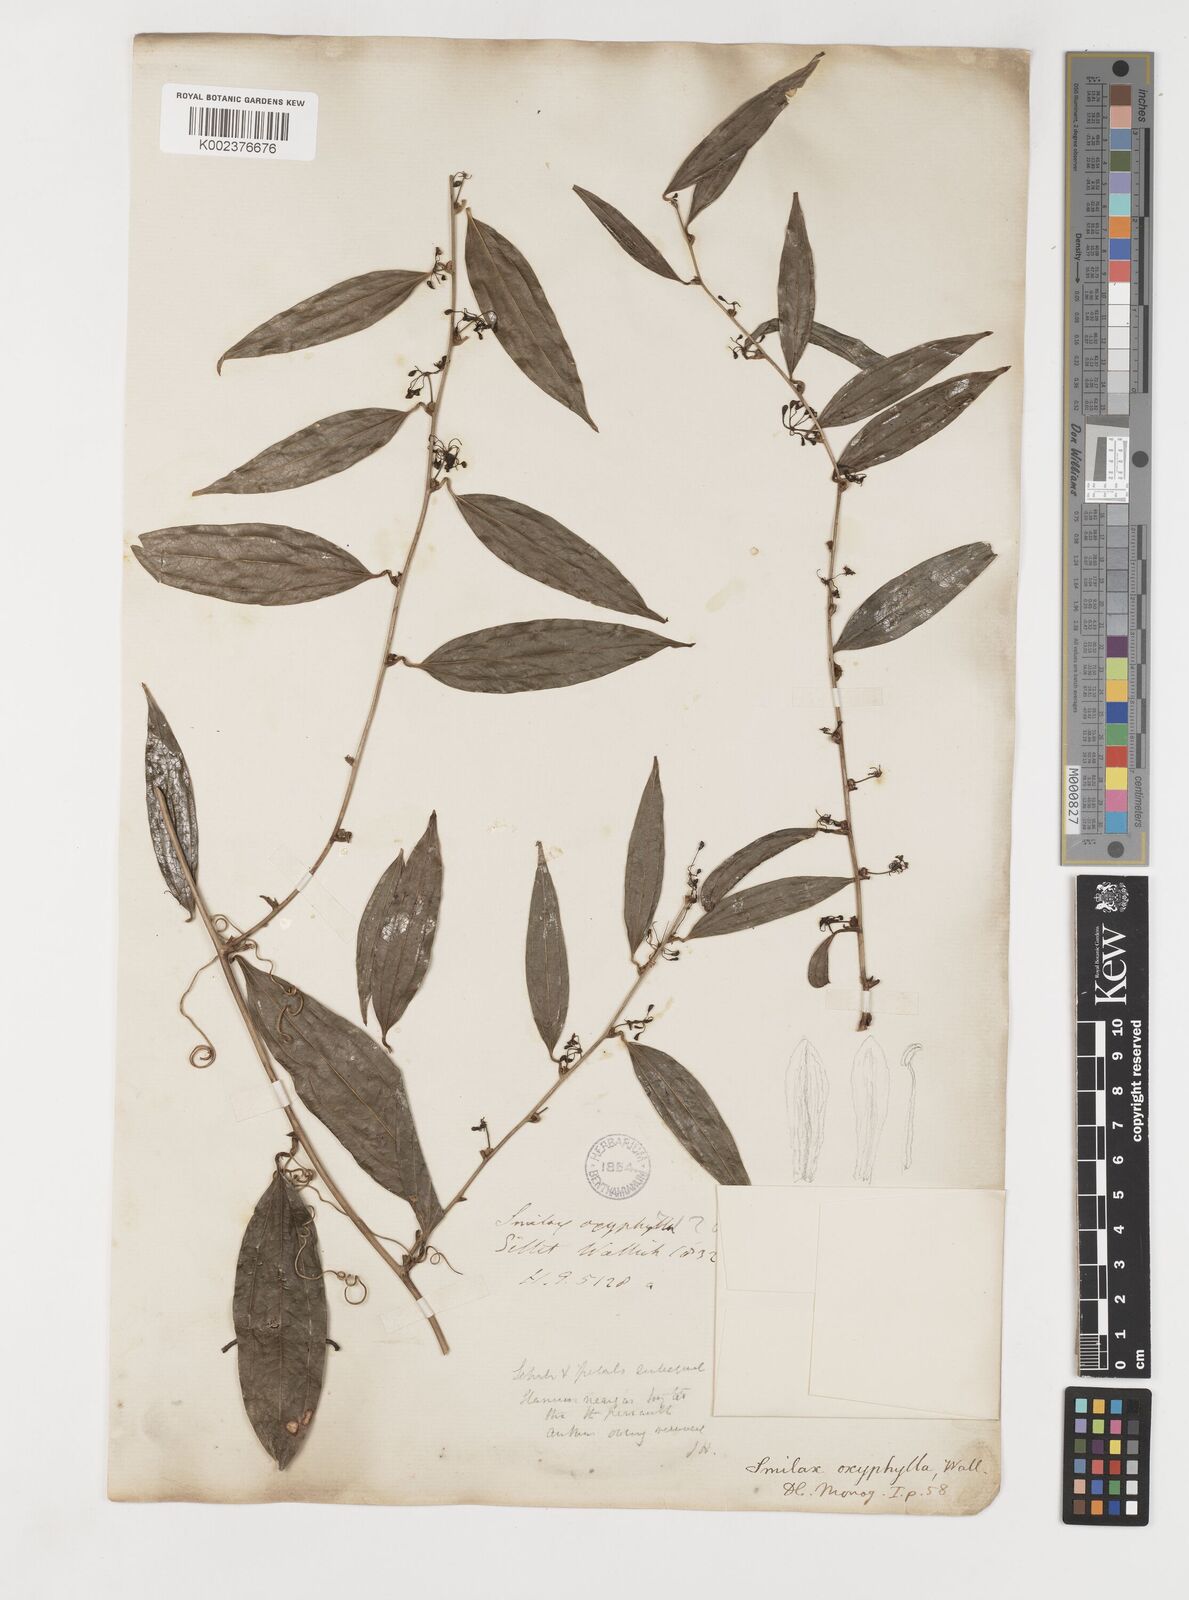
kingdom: Plantae
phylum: Tracheophyta
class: Liliopsida
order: Liliales
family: Smilacaceae
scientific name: Smilacaceae
